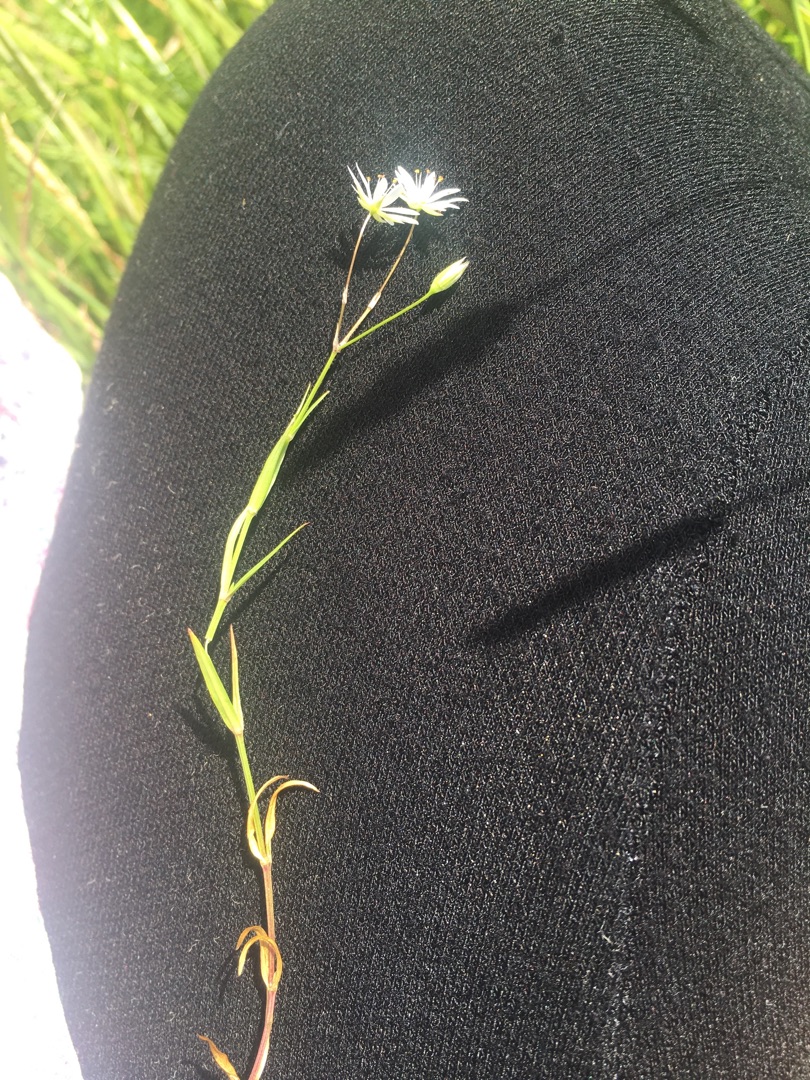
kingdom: Plantae
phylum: Tracheophyta
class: Magnoliopsida
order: Caryophyllales
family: Caryophyllaceae
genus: Stellaria
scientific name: Stellaria graminea
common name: Græsbladet fladstjerne
